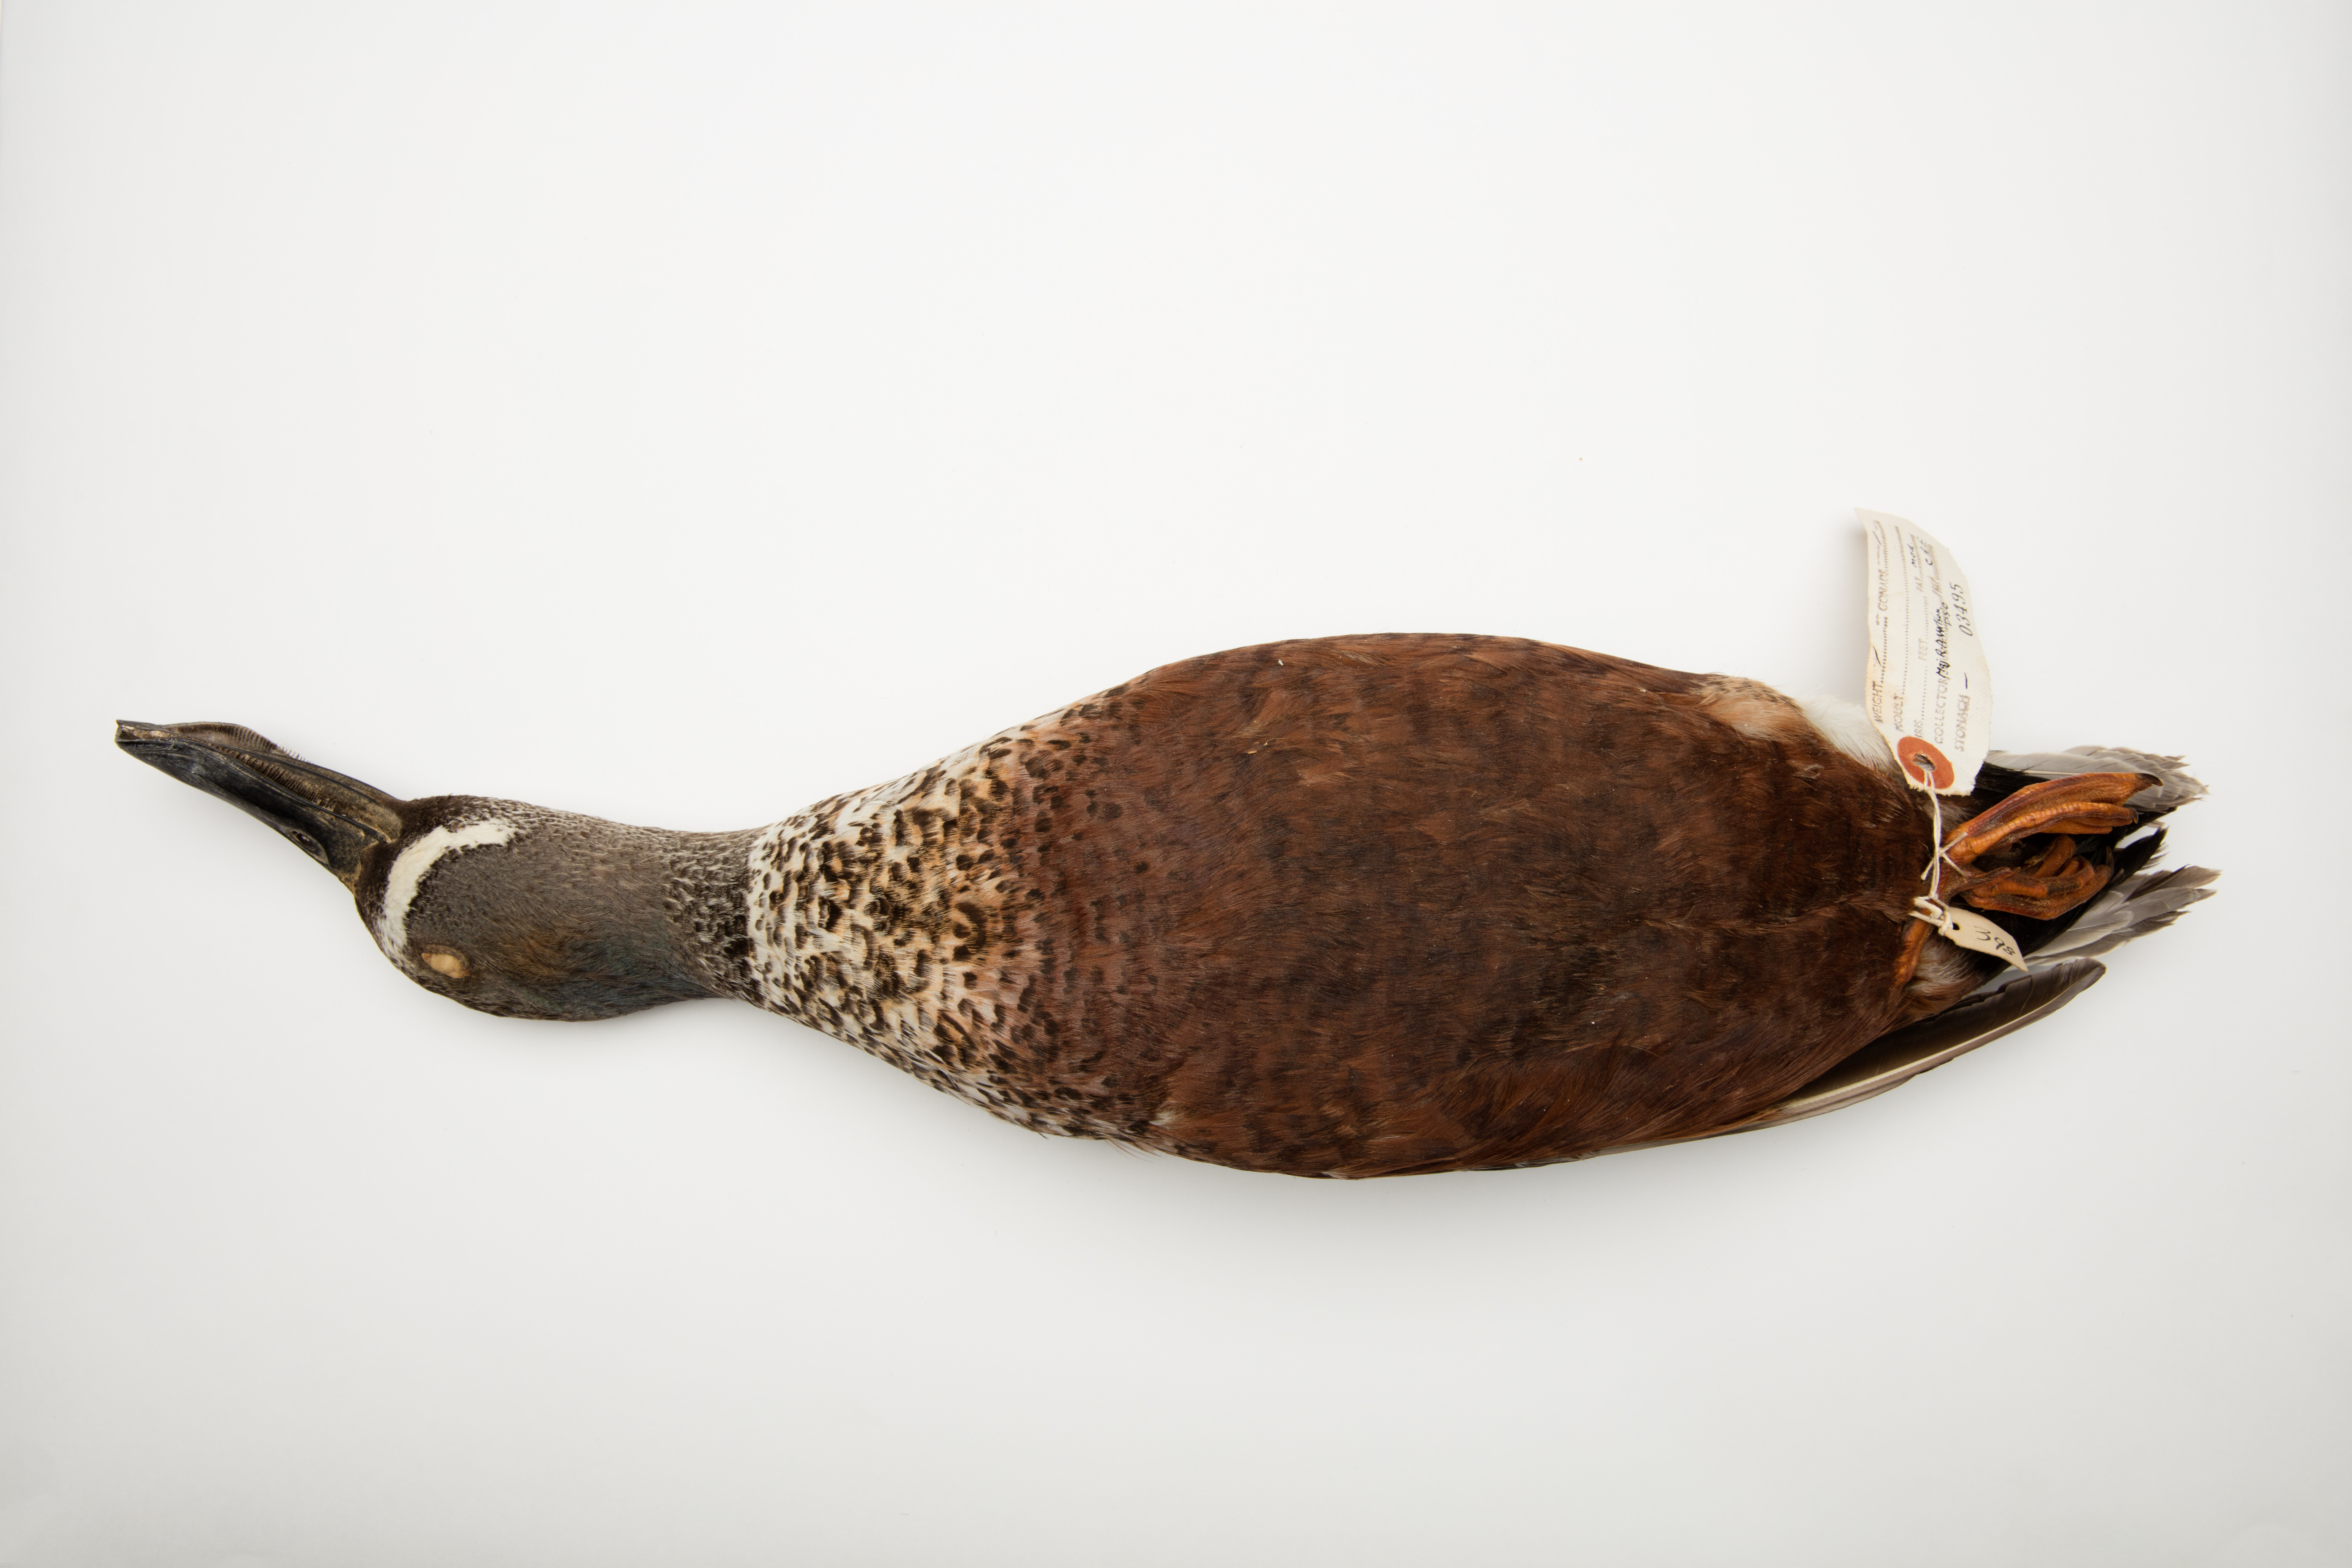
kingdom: Animalia
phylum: Chordata
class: Aves
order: Anseriformes
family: Anatidae
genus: Spatula
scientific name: Spatula rhynchotis
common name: Australian shoveler
